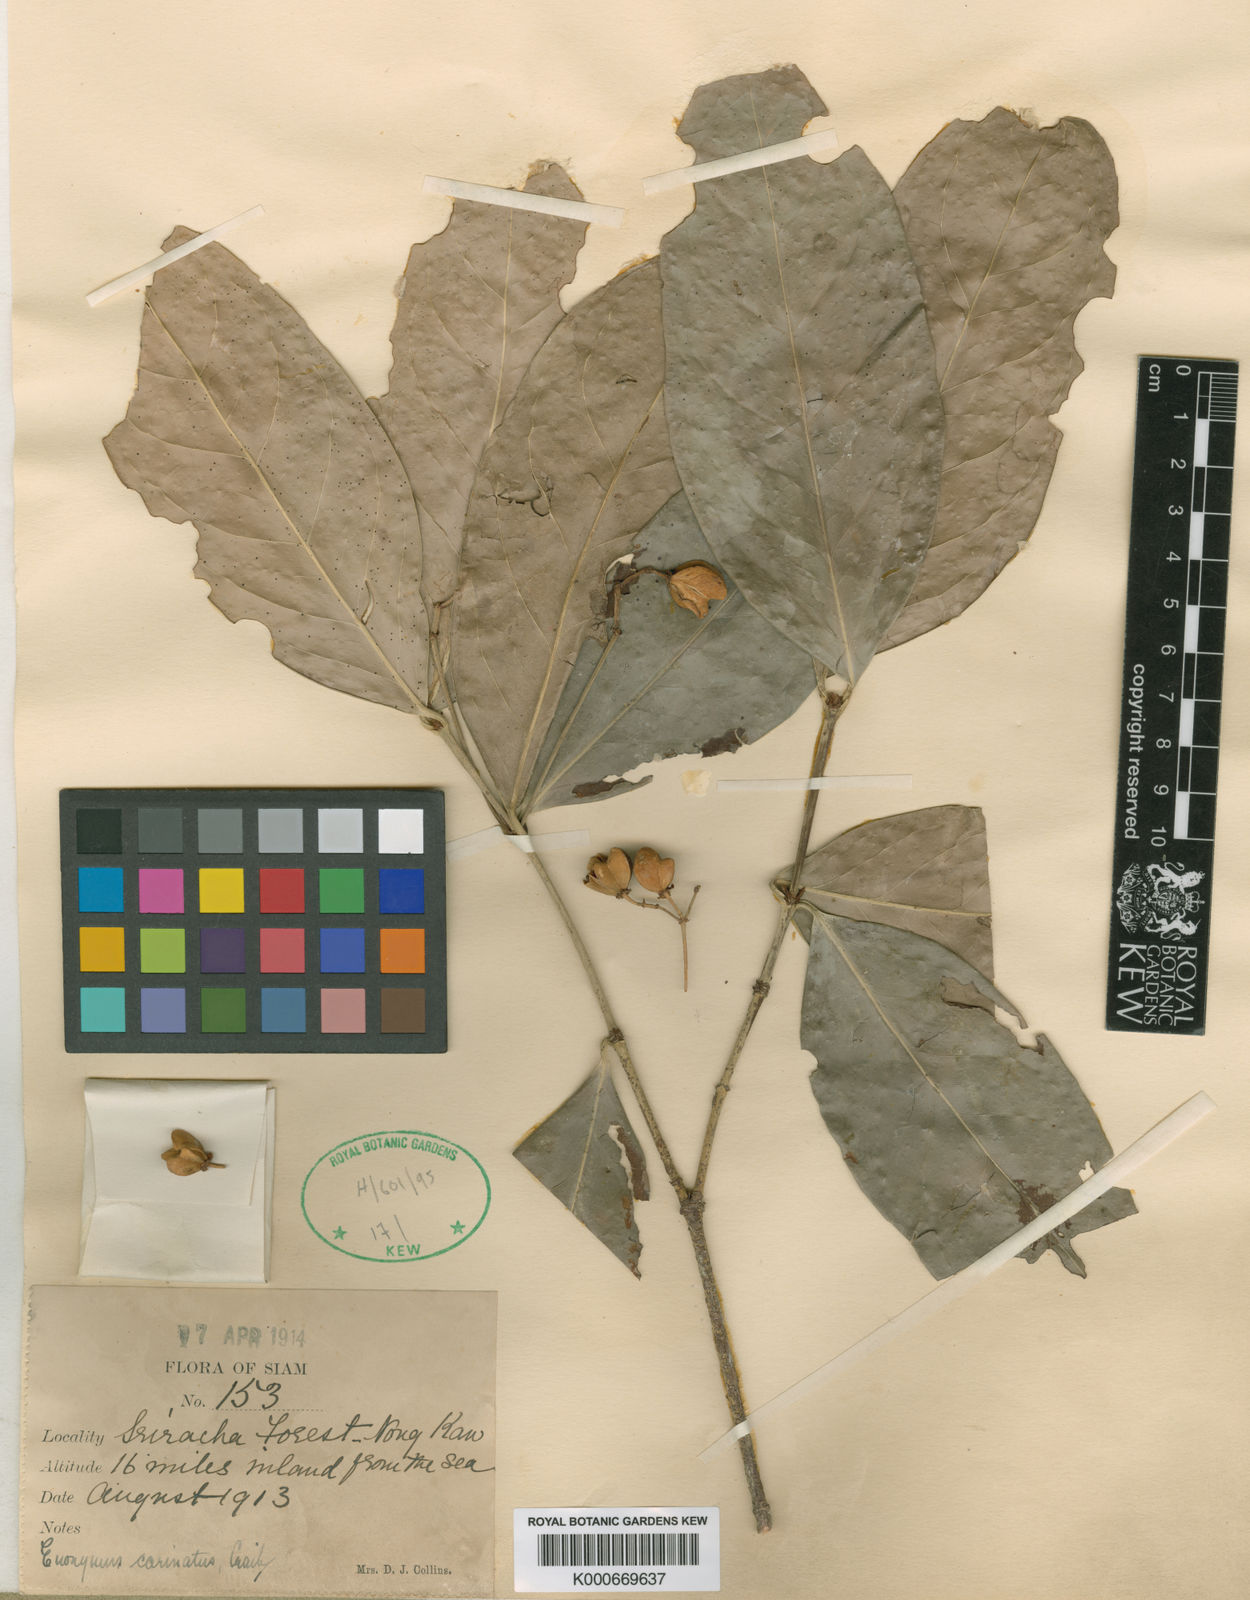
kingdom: Plantae
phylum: Tracheophyta
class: Magnoliopsida
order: Celastrales
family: Celastraceae
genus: Euonymus
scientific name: Euonymus glaber
